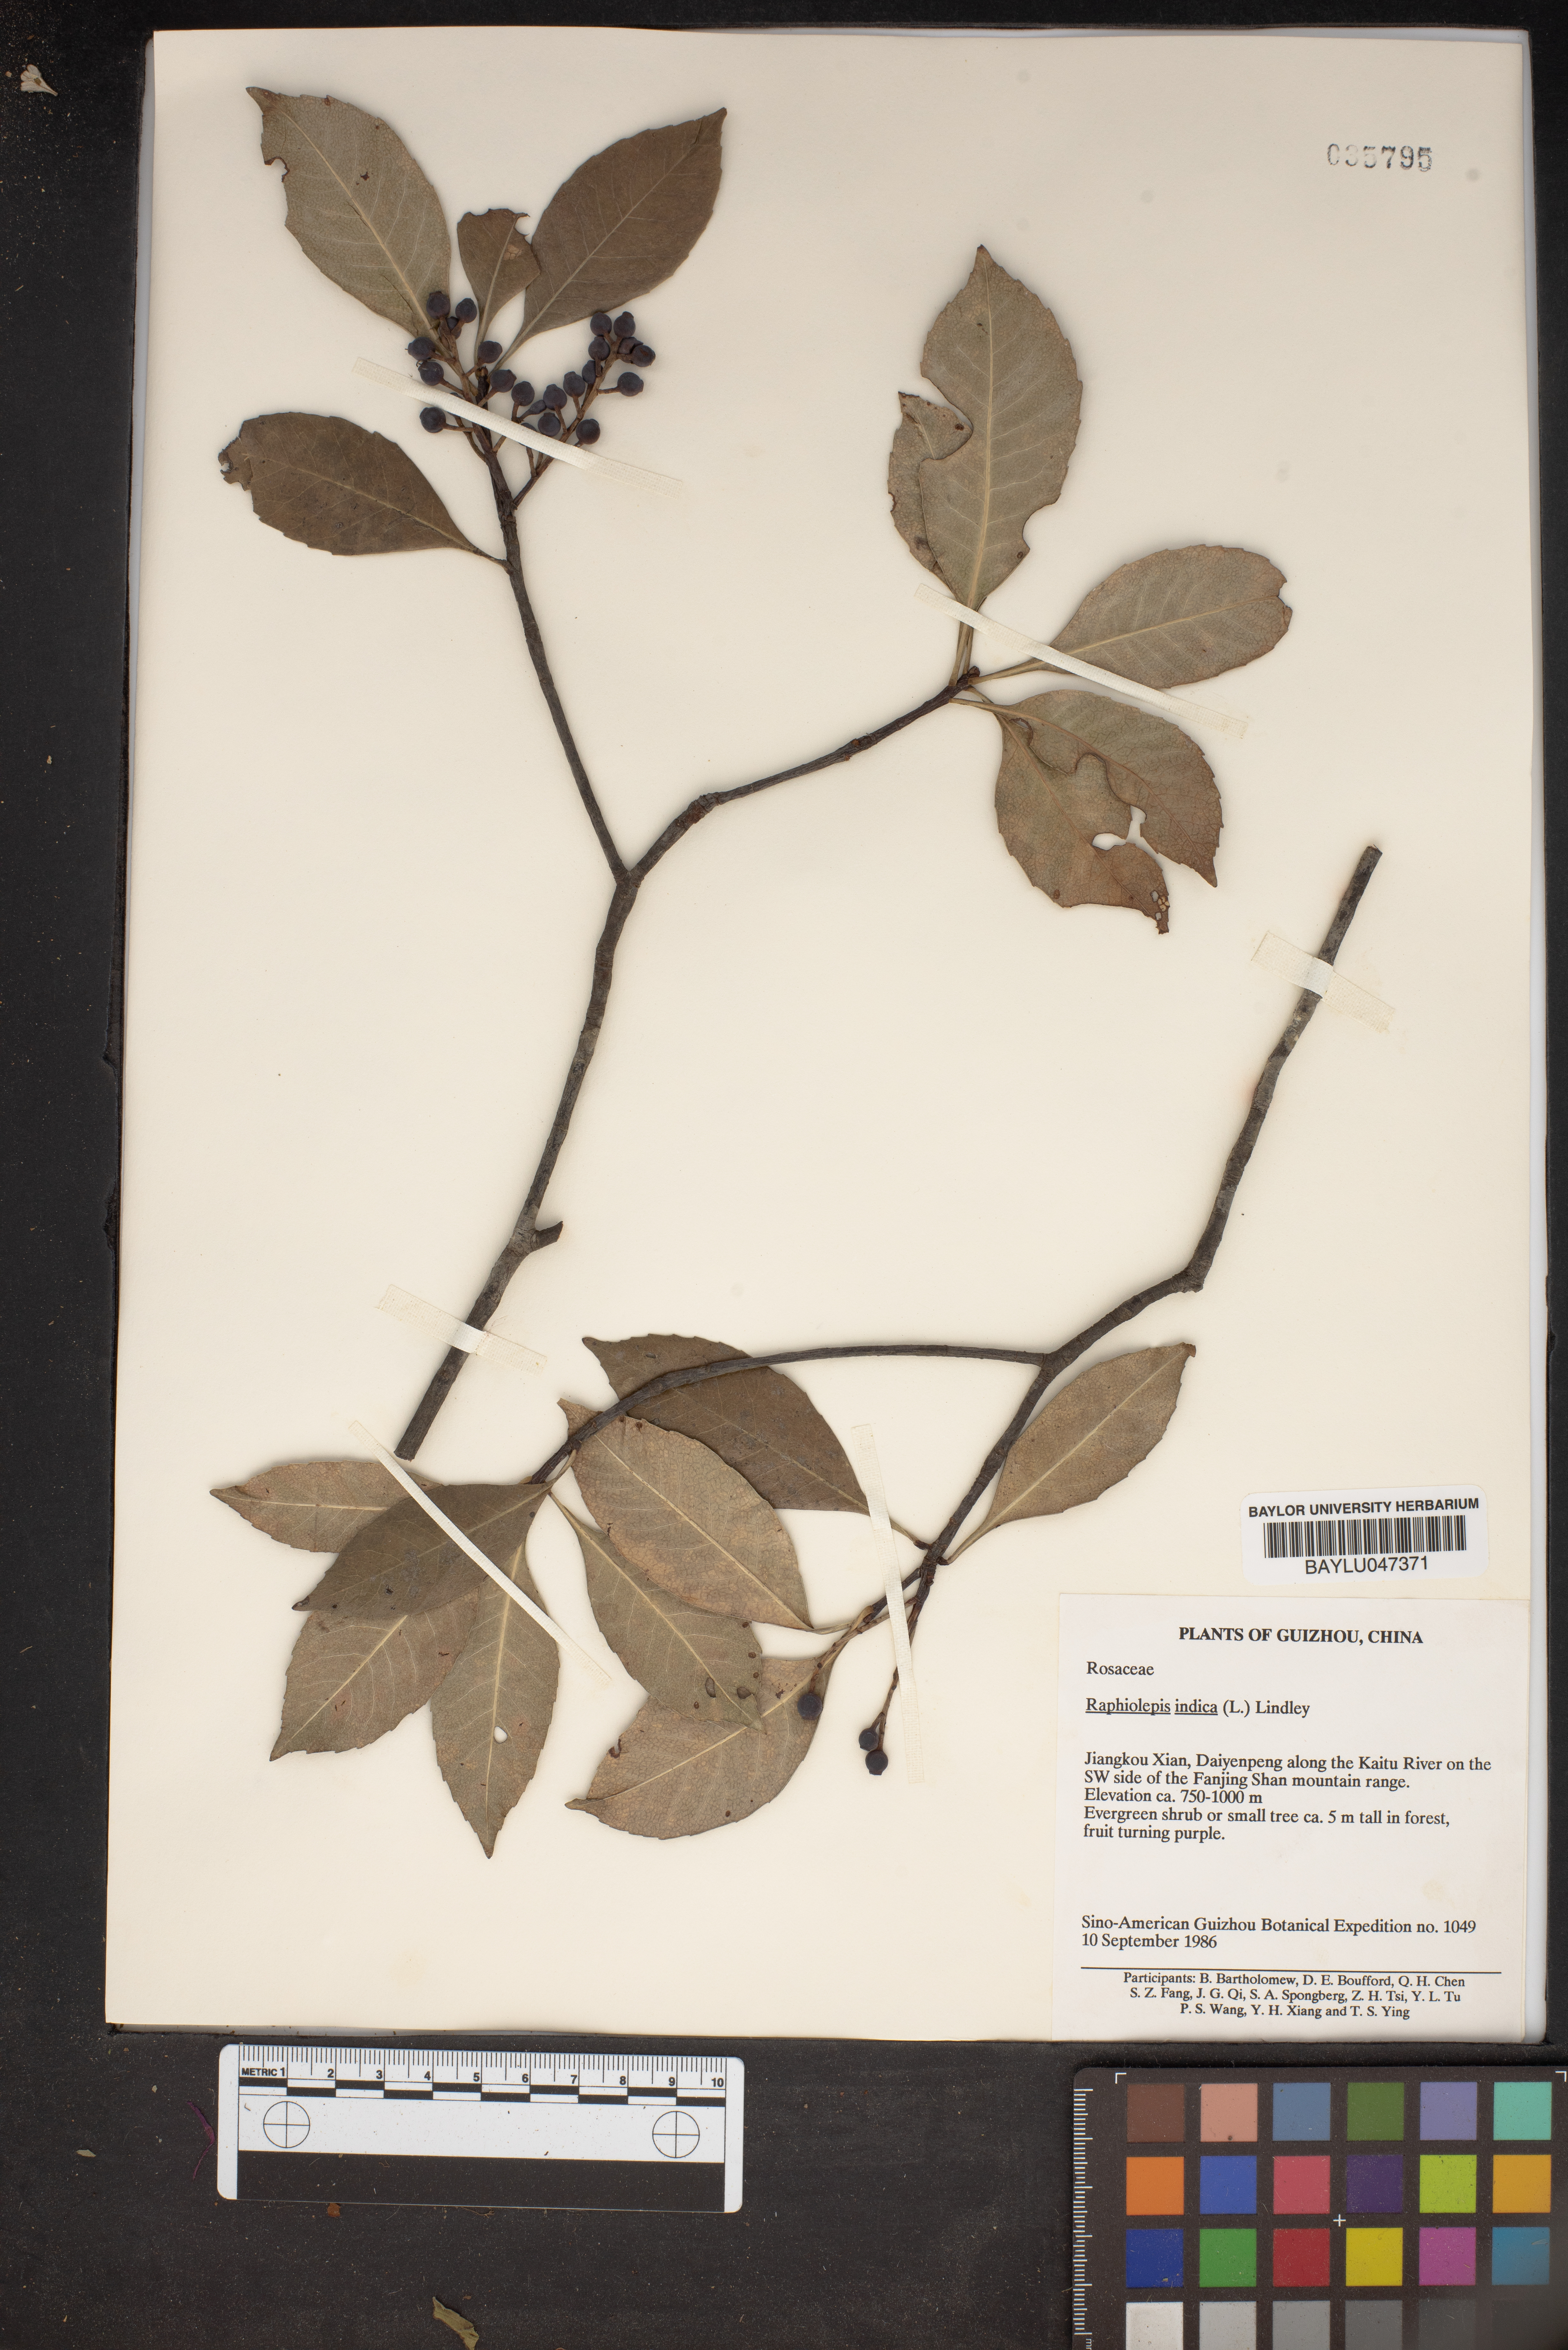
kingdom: Plantae
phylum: Tracheophyta
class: Magnoliopsida
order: Rosales
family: Rosaceae
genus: Rhaphiolepis
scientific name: Rhaphiolepis indica
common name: India-hawthorn
